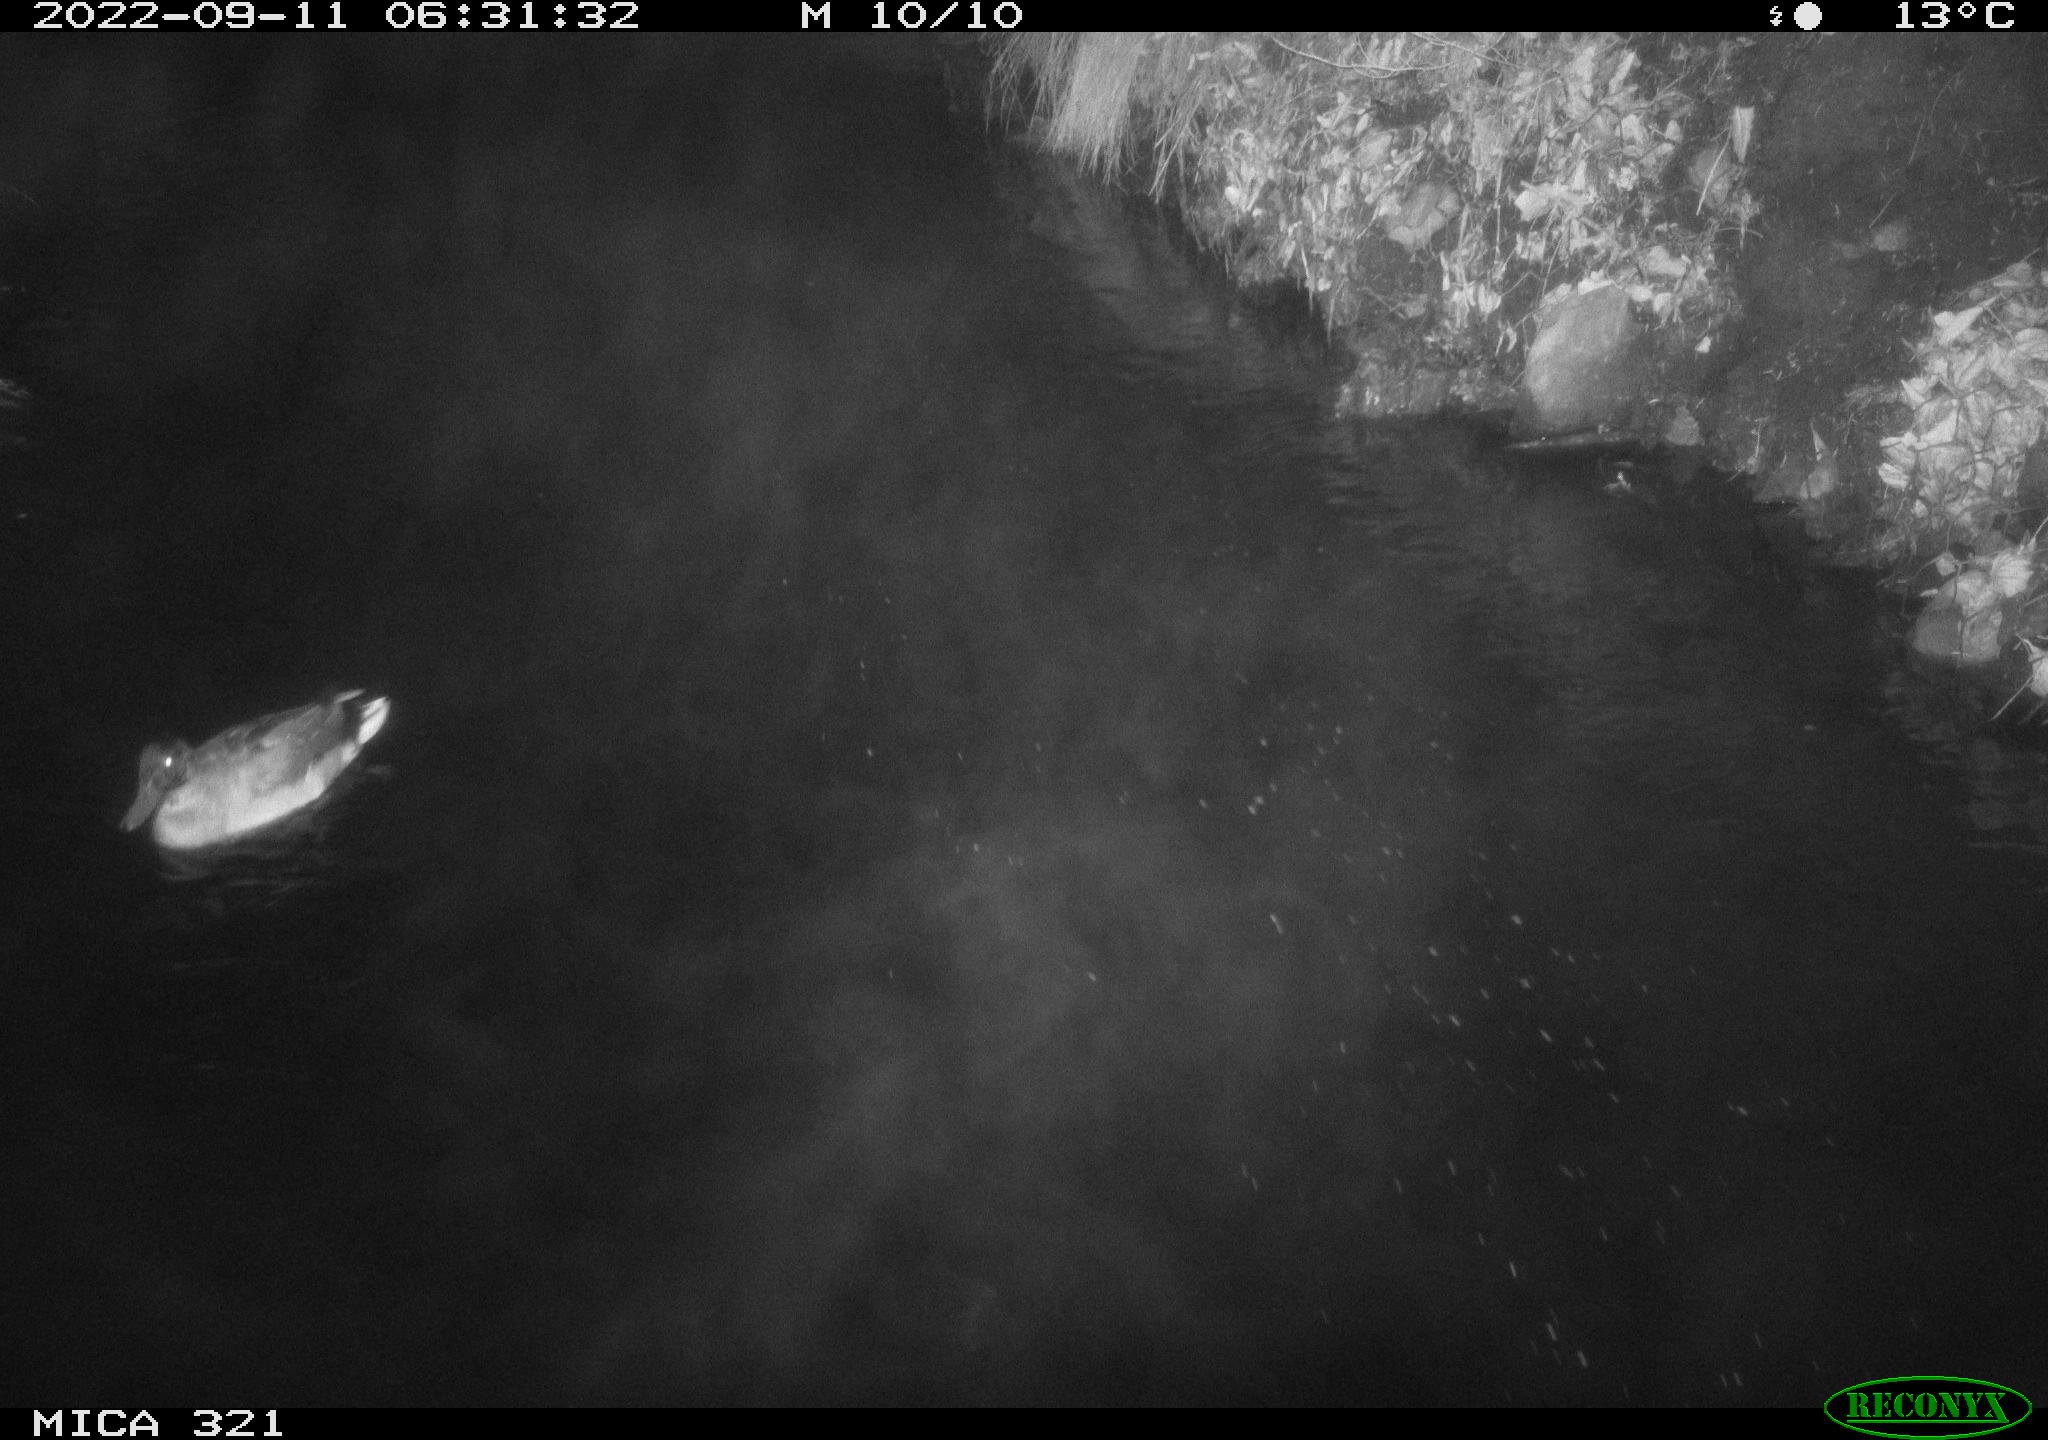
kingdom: Animalia
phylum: Chordata
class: Aves
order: Anseriformes
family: Anatidae
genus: Anas
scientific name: Anas
